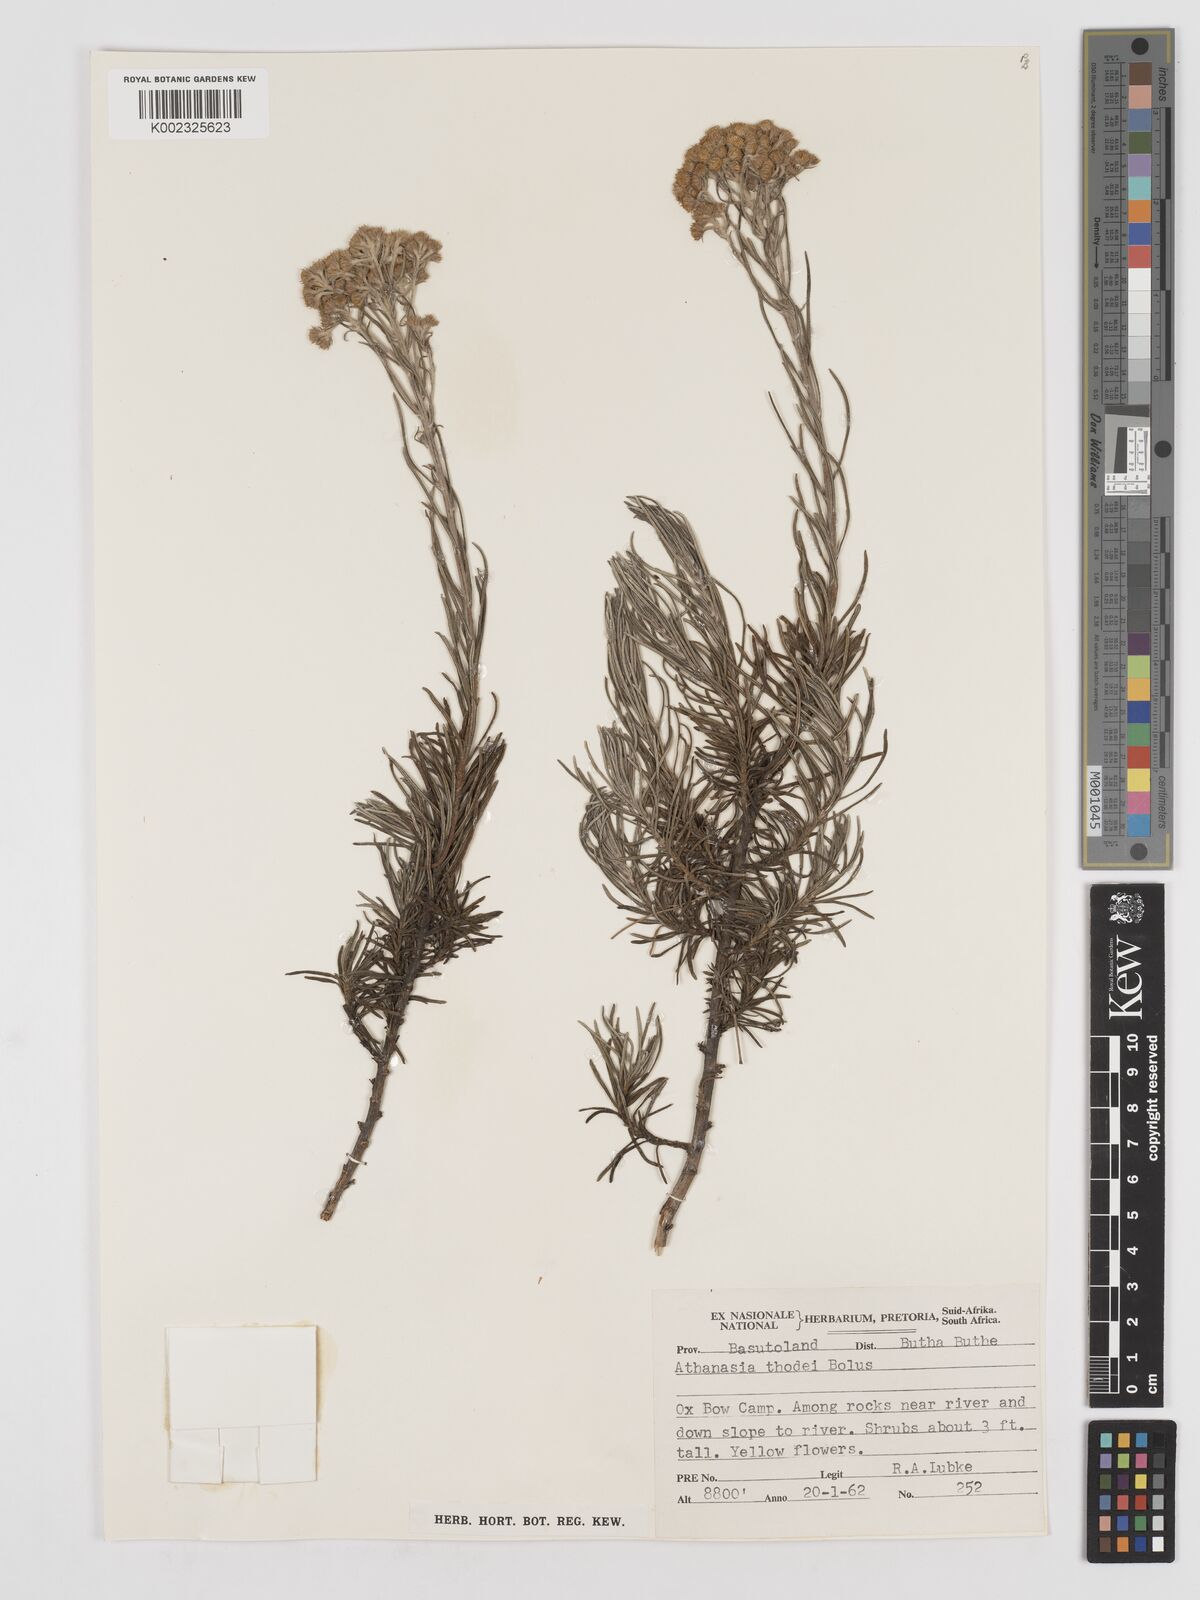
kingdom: Plantae
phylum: Tracheophyta
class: Magnoliopsida
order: Asterales
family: Asteraceae
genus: Inulanthera
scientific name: Inulanthera thodei
